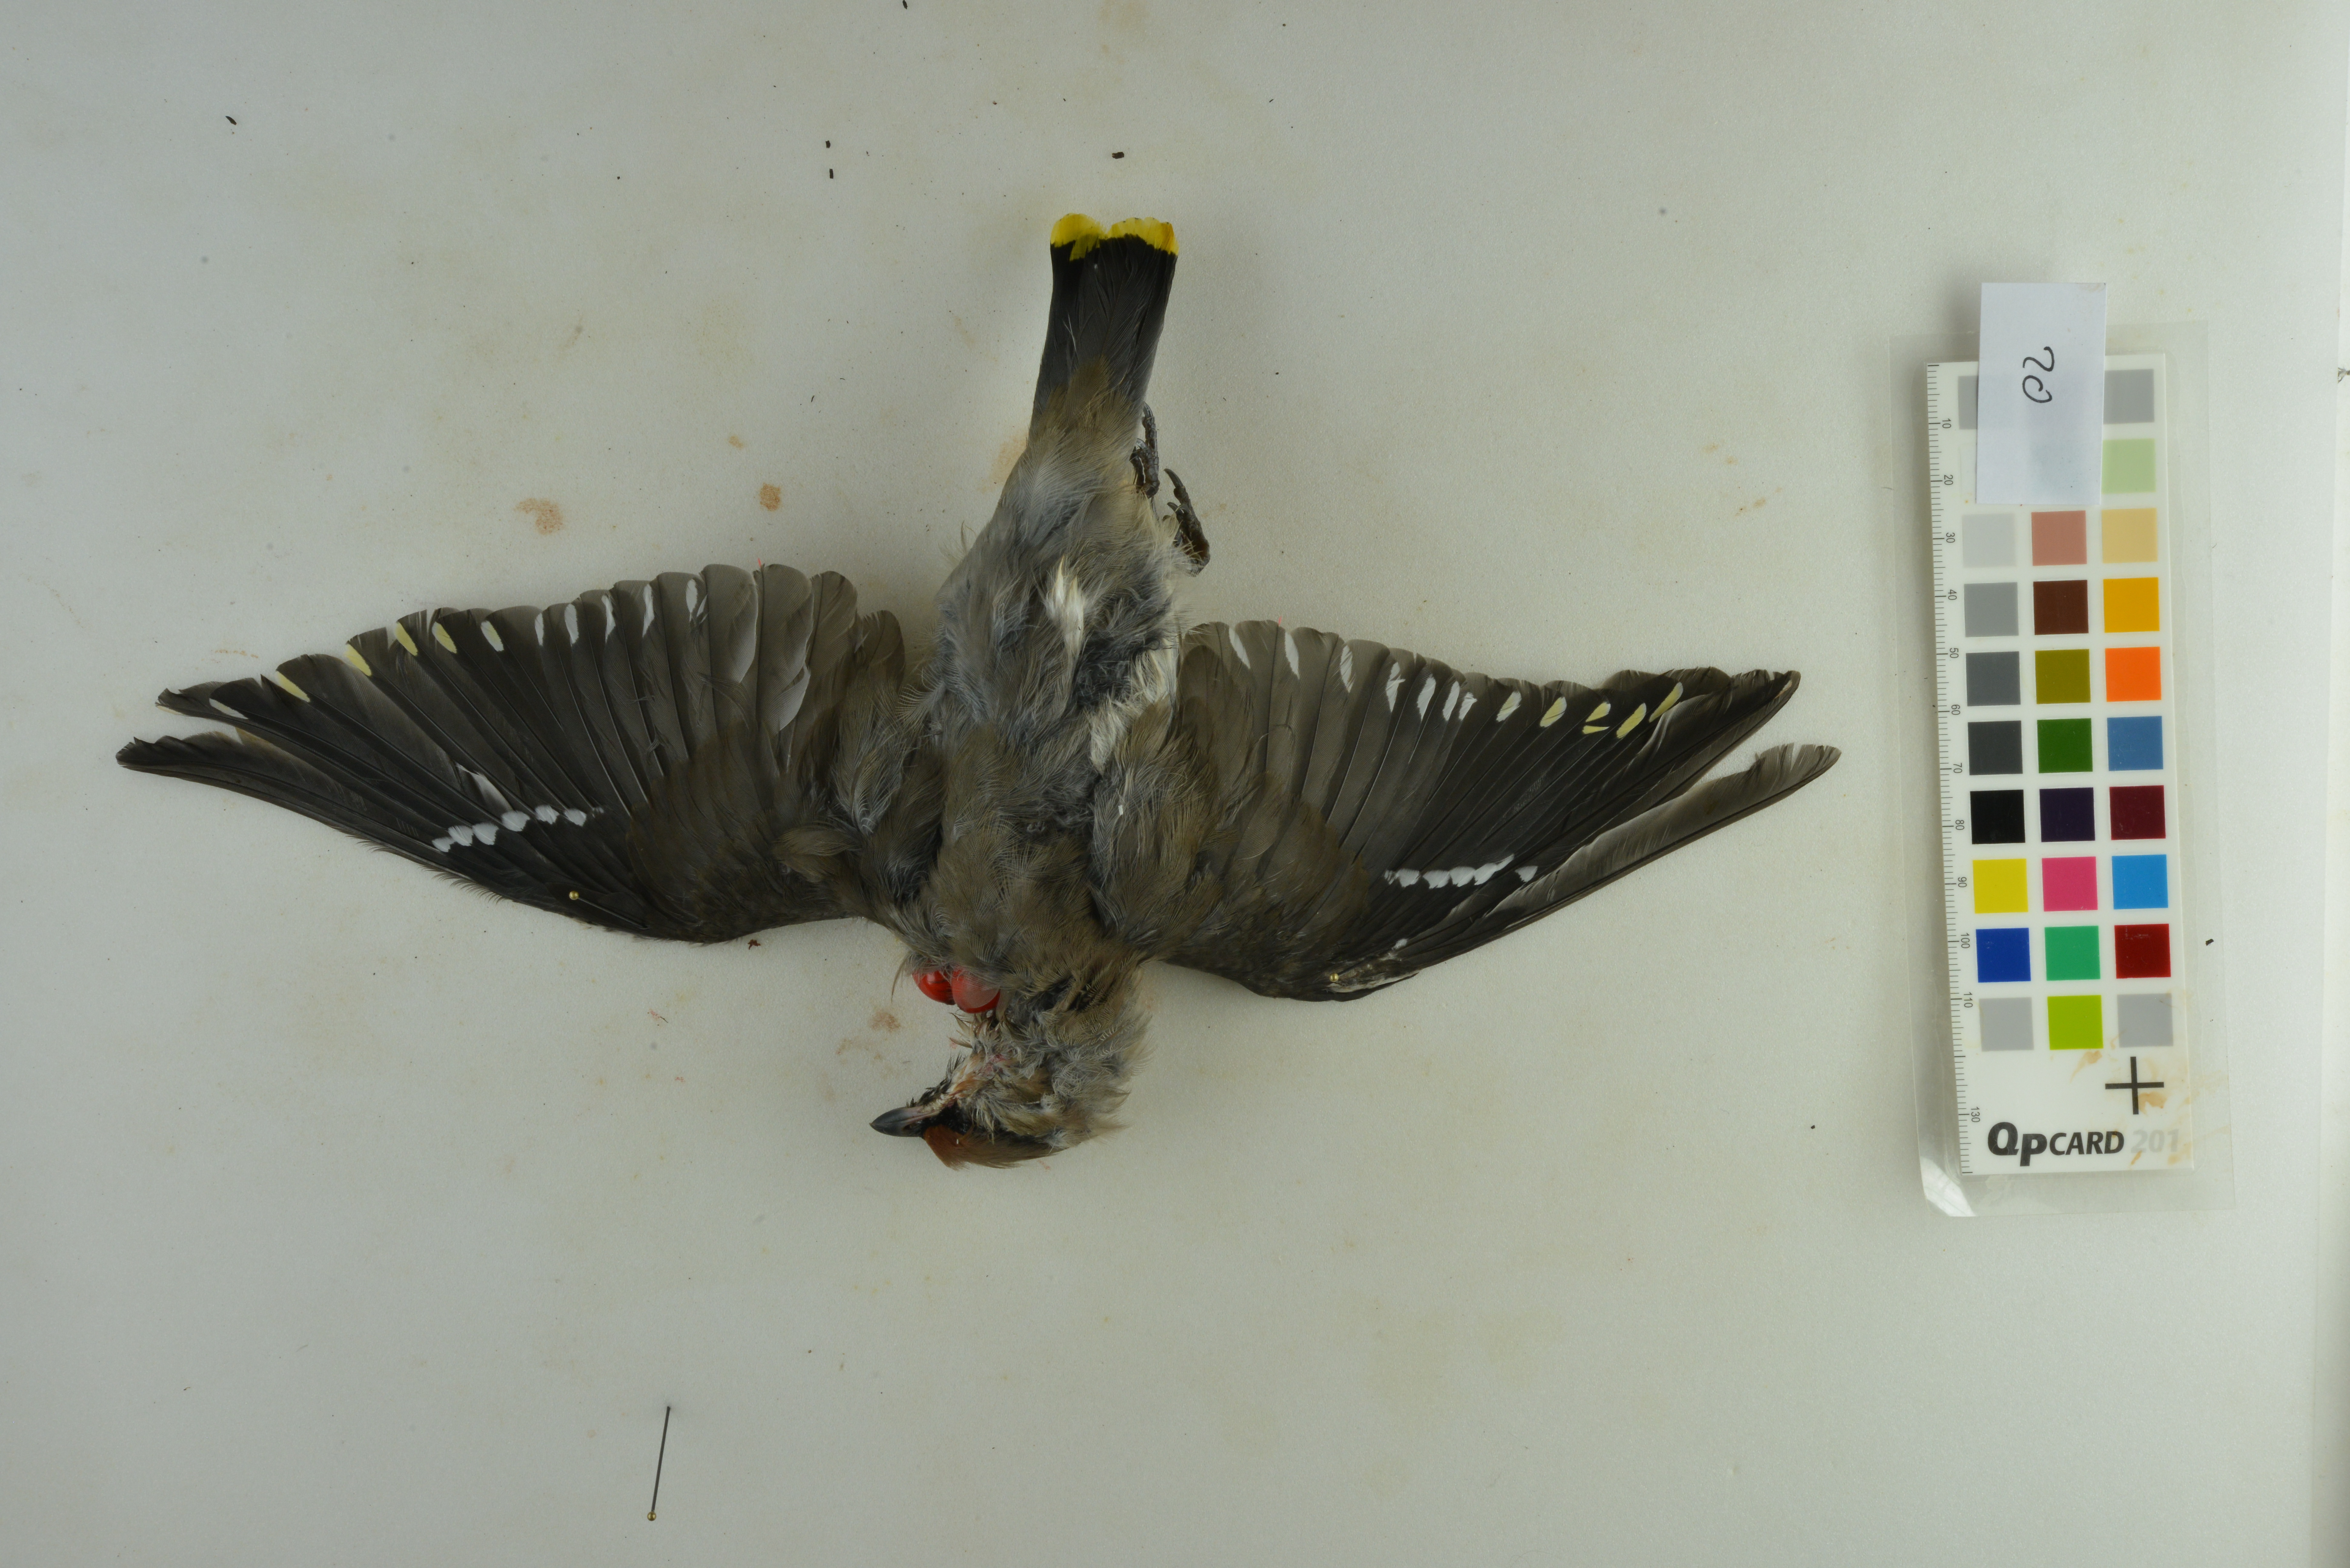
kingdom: Animalia
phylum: Chordata
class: Aves
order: Passeriformes
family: Bombycillidae
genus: Bombycilla
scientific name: Bombycilla garrulus
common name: Bohemian waxwing
